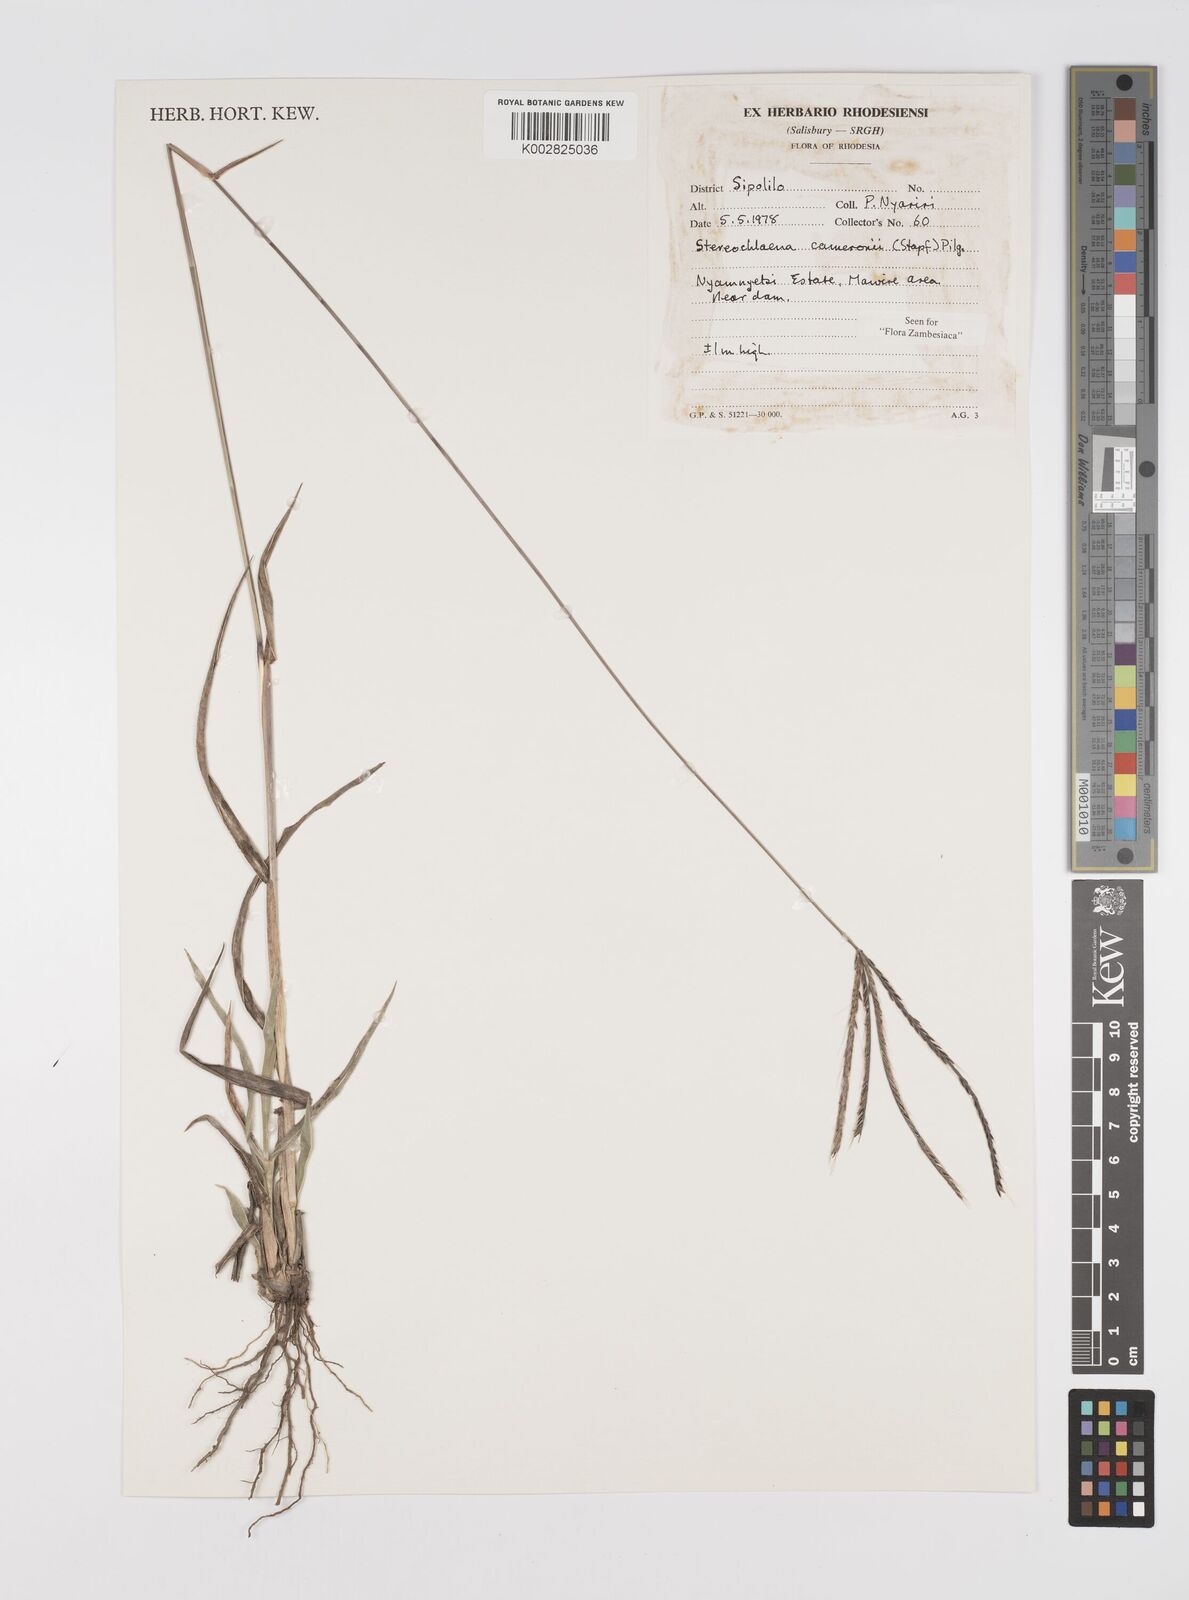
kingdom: Plantae
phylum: Tracheophyta
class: Liliopsida
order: Poales
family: Poaceae
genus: Stereochlaena
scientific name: Stereochlaena cameronii
